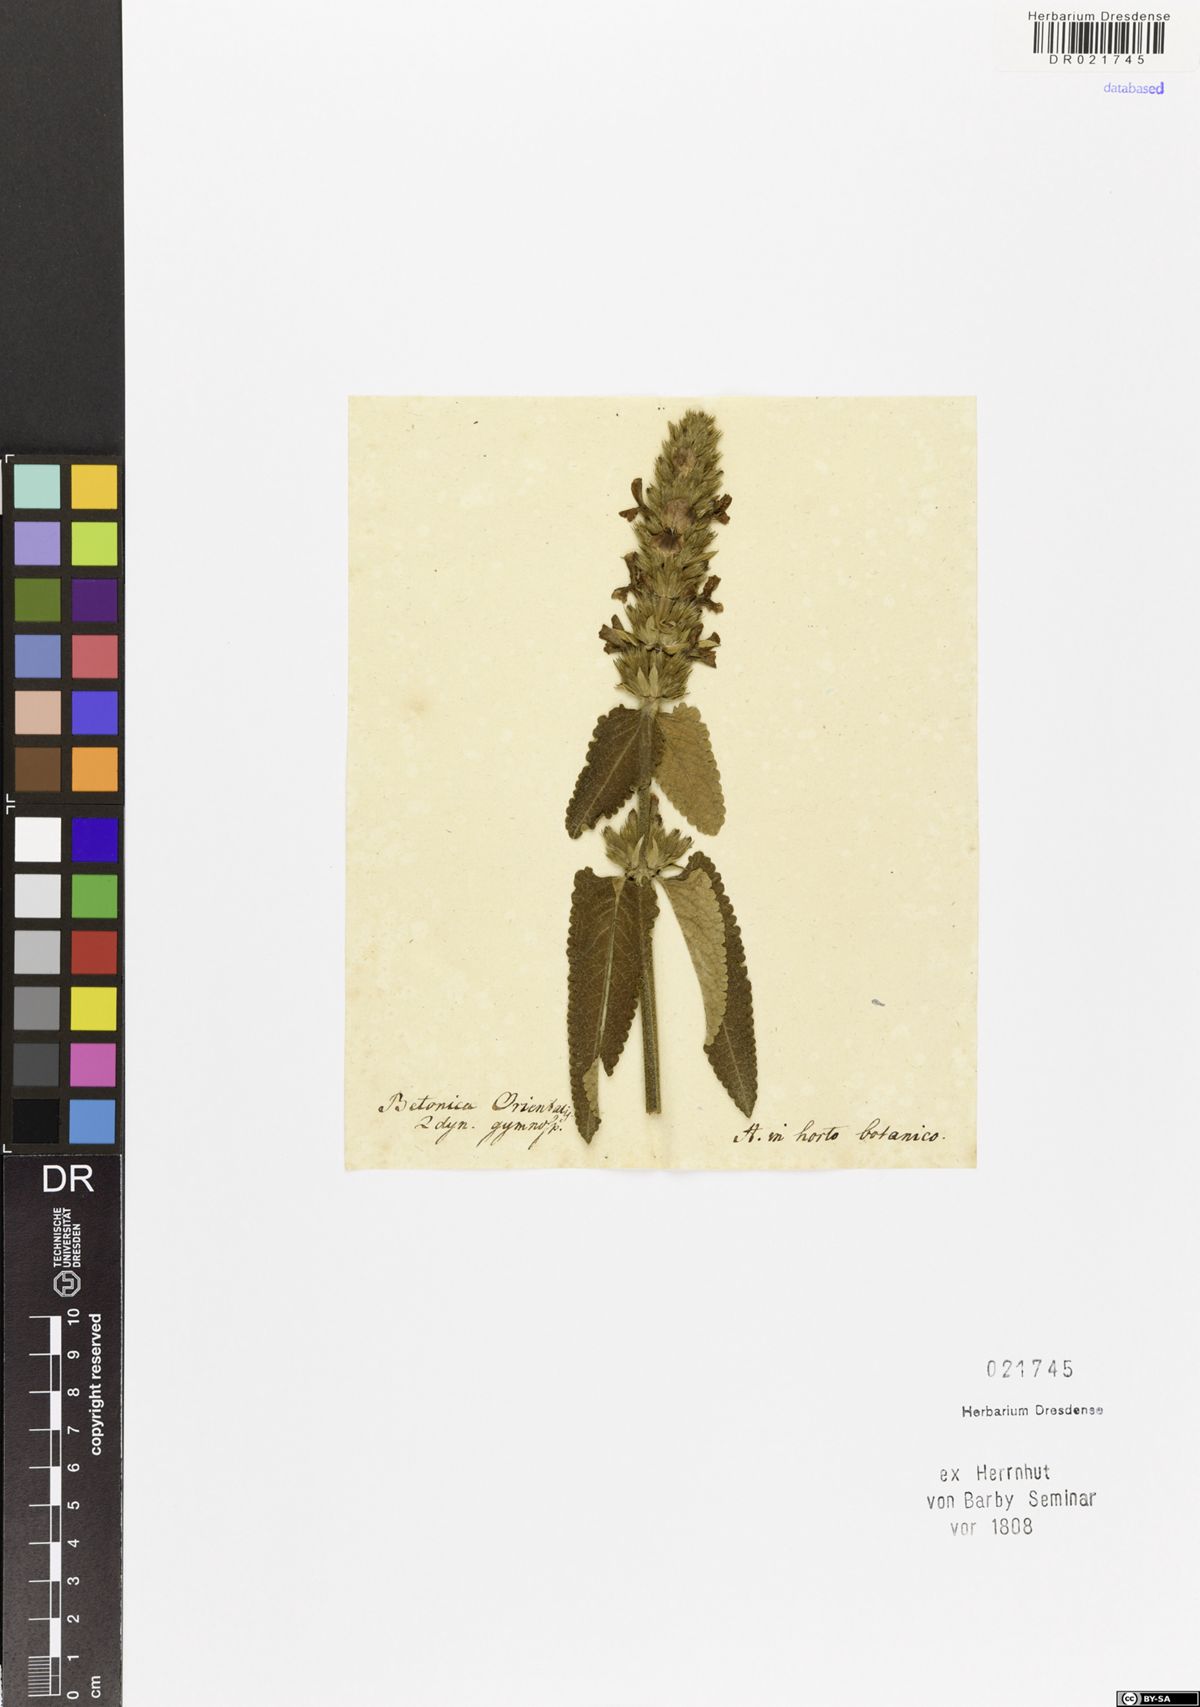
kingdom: Plantae
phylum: Tracheophyta
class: Magnoliopsida
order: Lamiales
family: Lamiaceae
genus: Stachys
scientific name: Stachys
